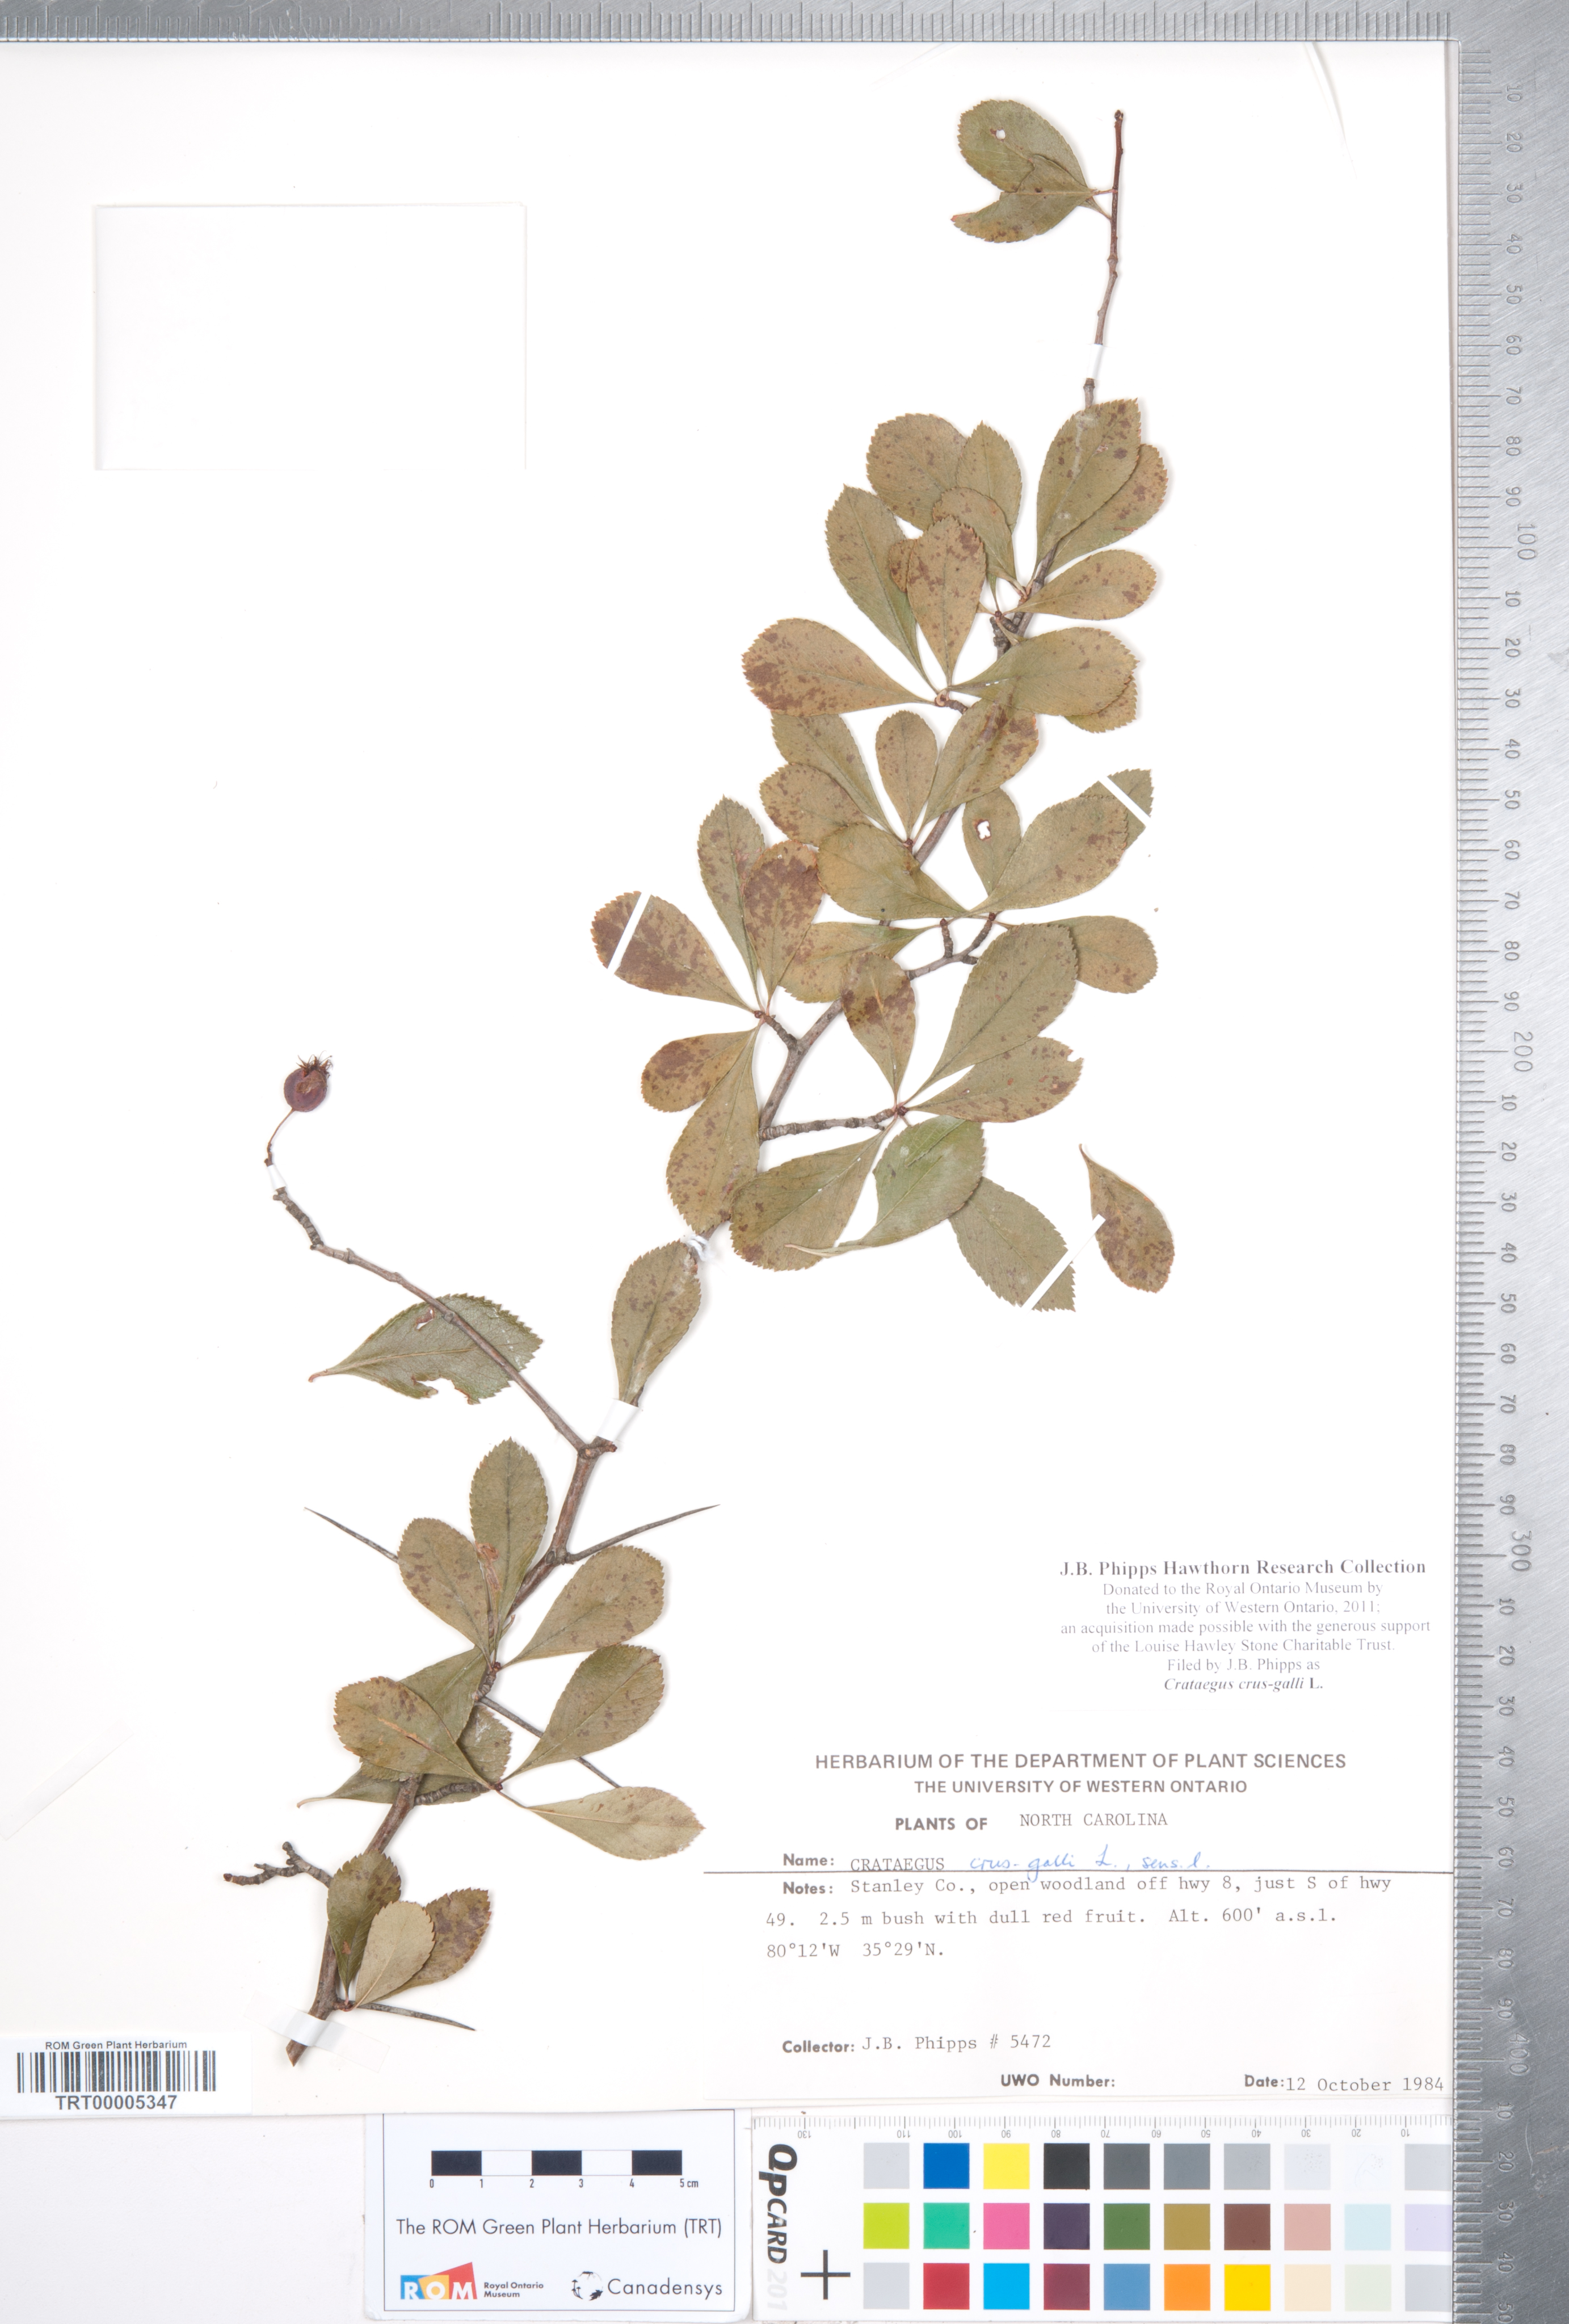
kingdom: Plantae
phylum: Tracheophyta
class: Magnoliopsida
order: Rosales
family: Rosaceae
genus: Crataegus
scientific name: Crataegus crus-galli
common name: Cockspurthorn
